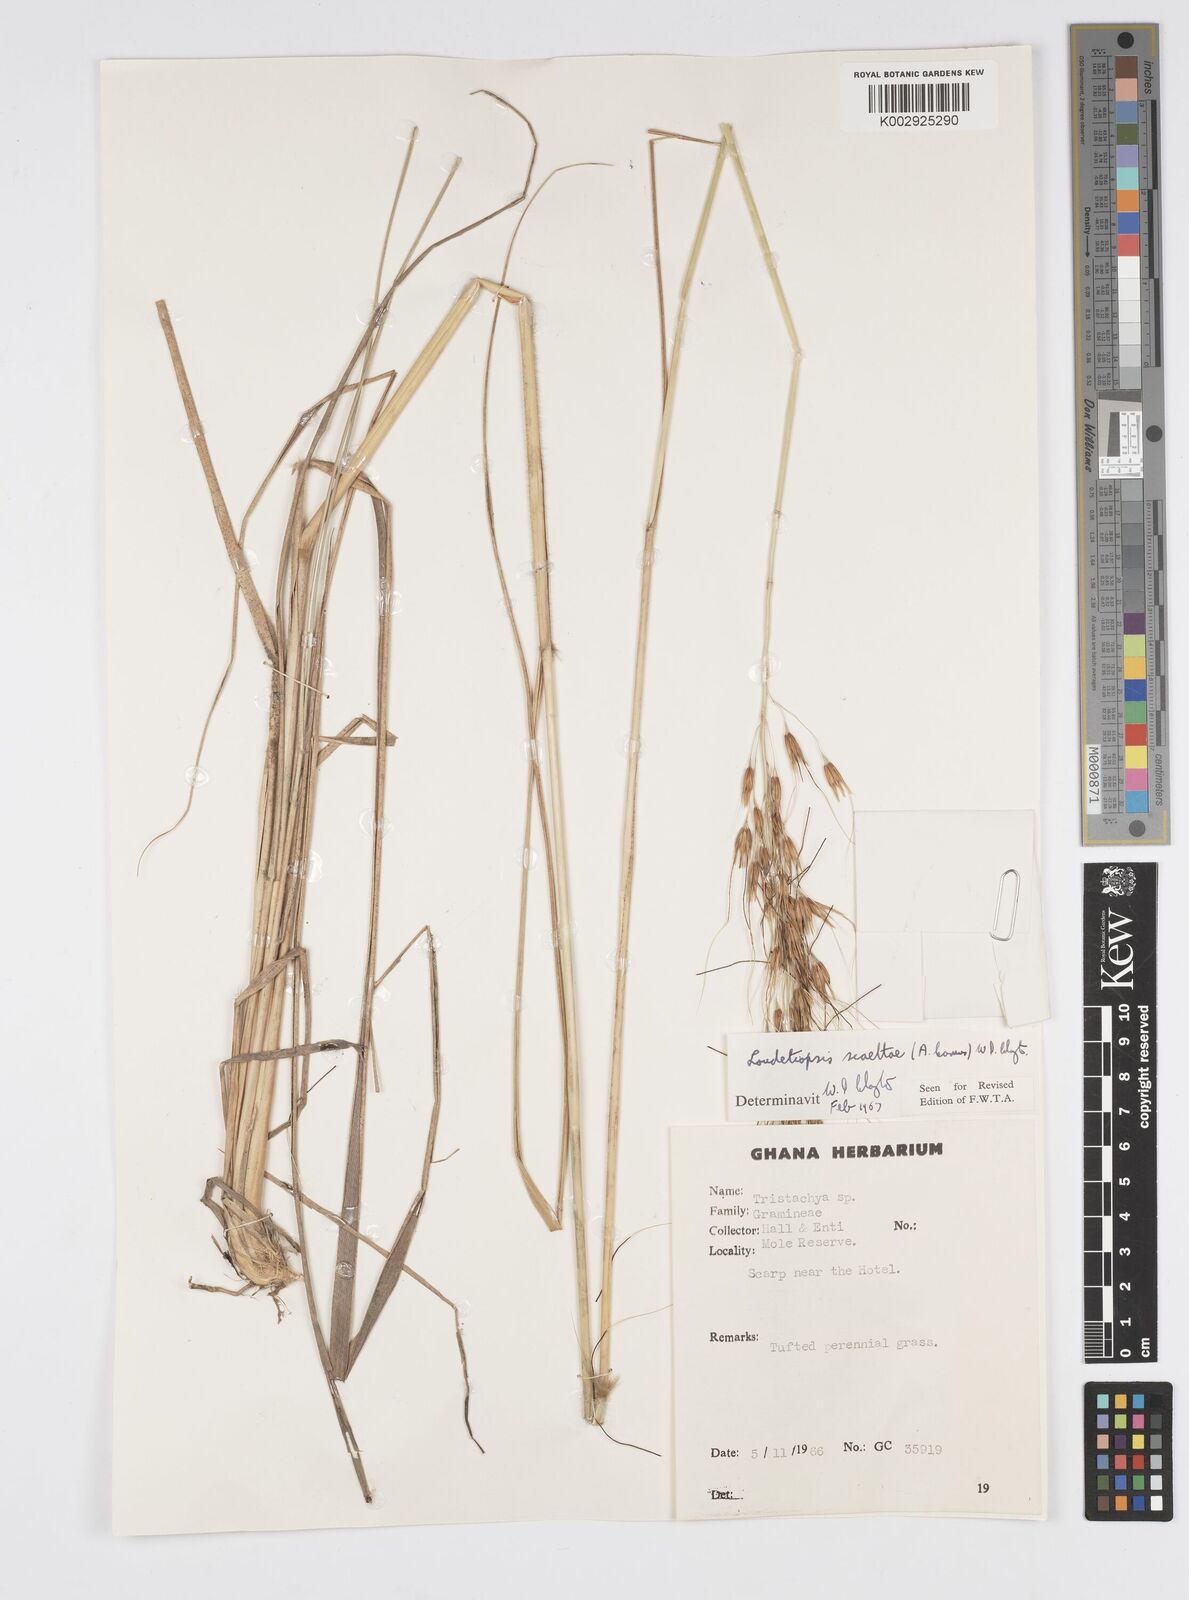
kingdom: Plantae
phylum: Tracheophyta
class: Liliopsida
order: Poales
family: Poaceae
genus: Loudetiopsis
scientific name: Loudetiopsis scaettae
